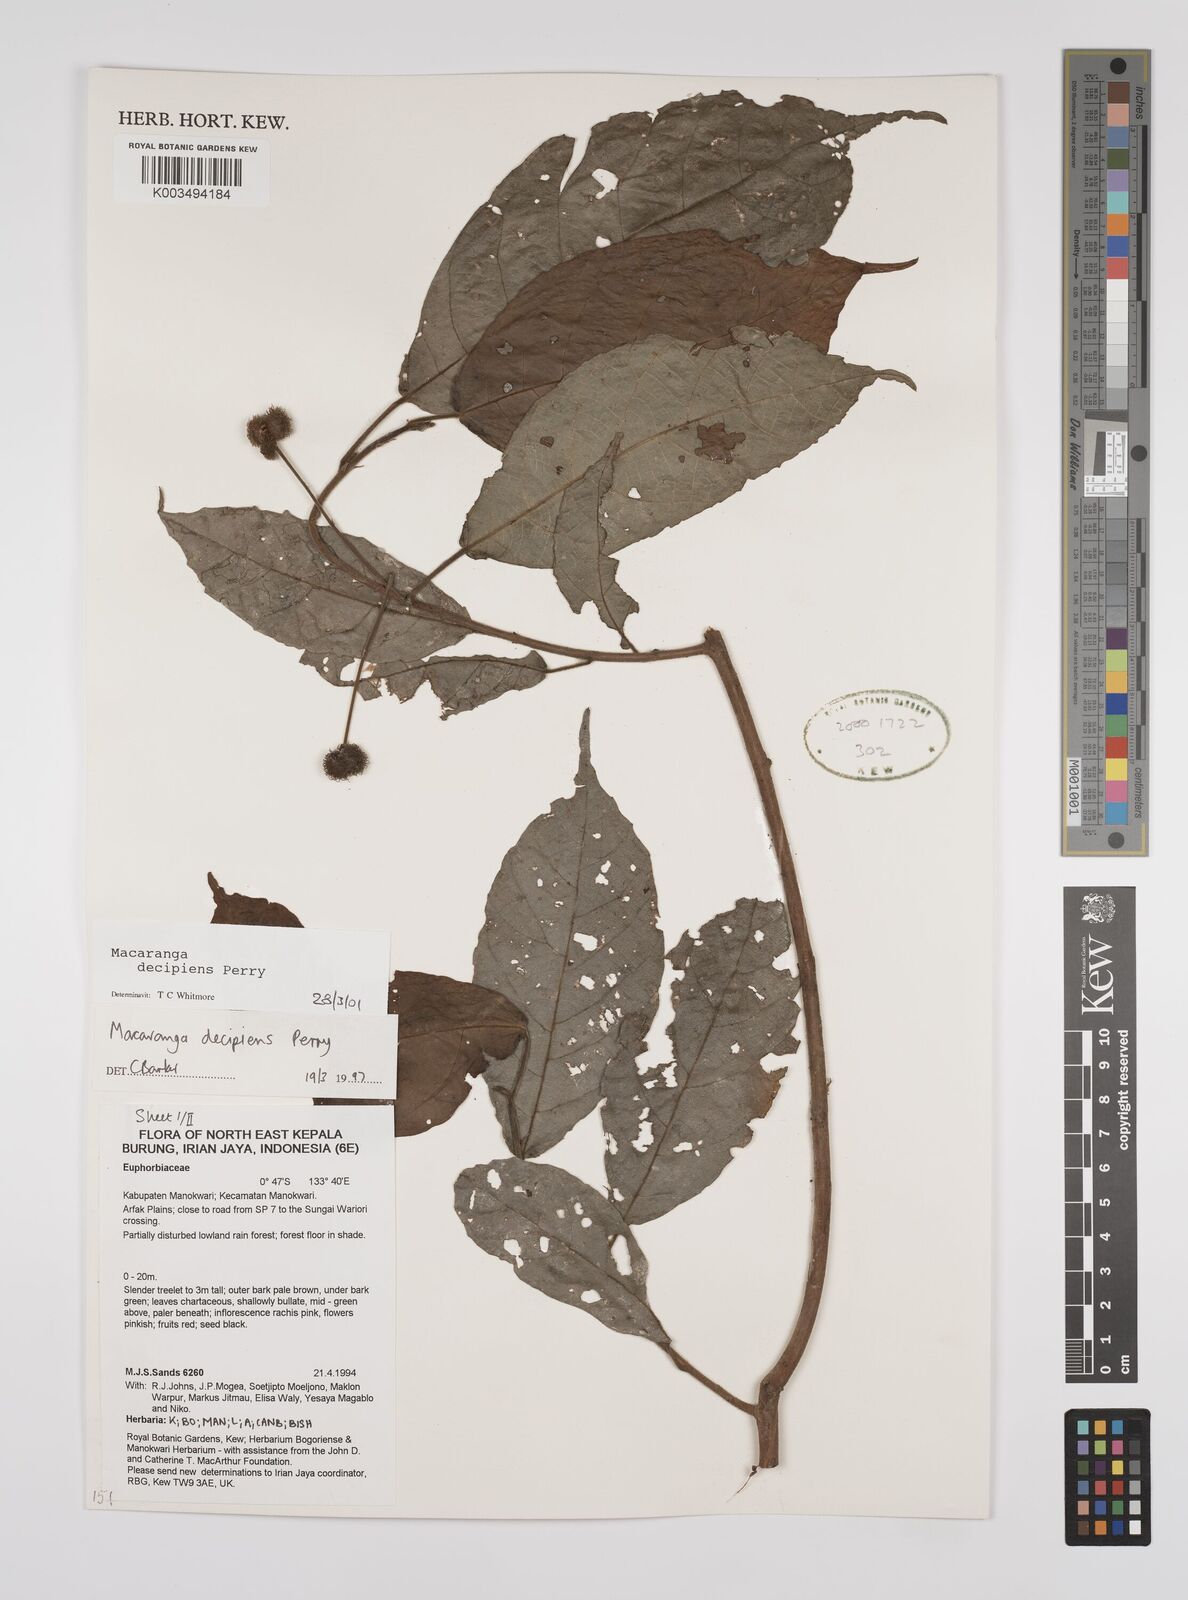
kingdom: Plantae
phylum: Tracheophyta
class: Magnoliopsida
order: Malpighiales
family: Euphorbiaceae
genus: Macaranga
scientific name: Macaranga decipiens
